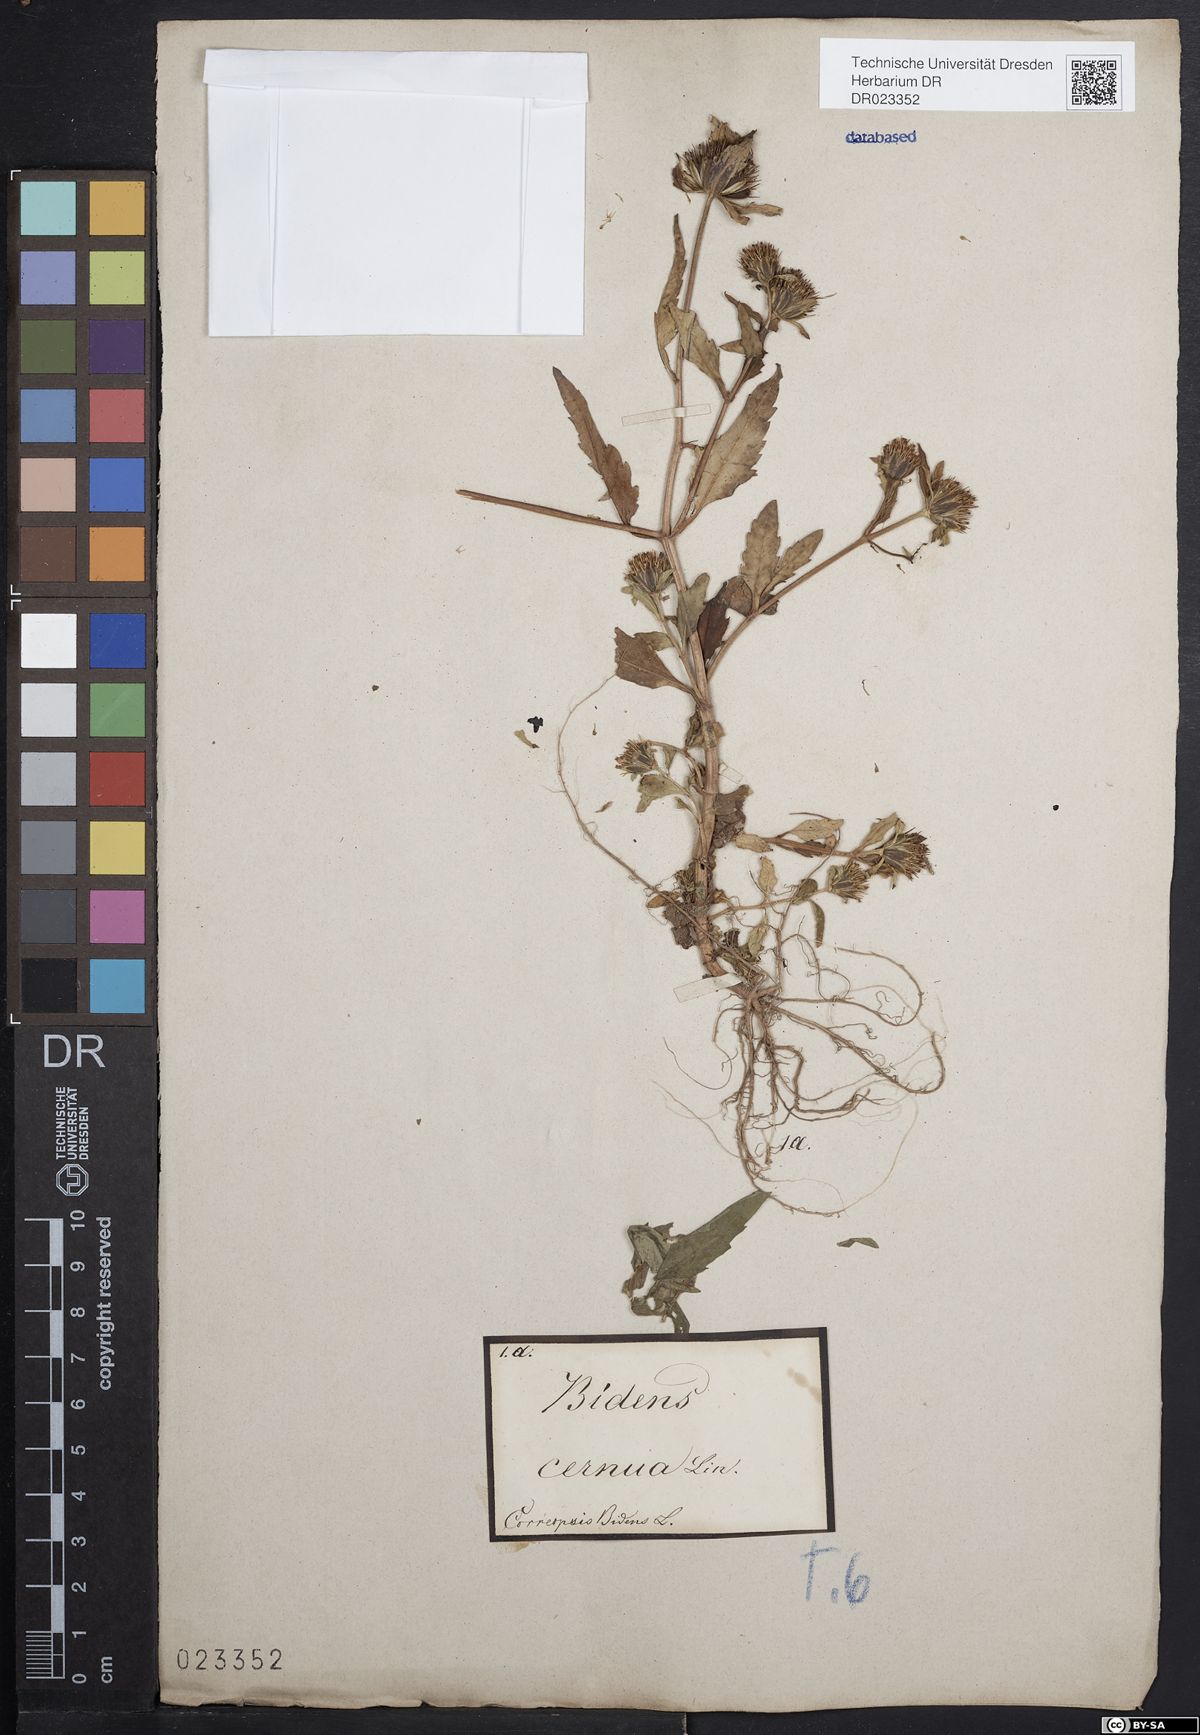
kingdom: Plantae
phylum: Tracheophyta
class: Magnoliopsida
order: Asterales
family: Asteraceae
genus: Bidens
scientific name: Bidens cernua
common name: Nodding bur-marigold
